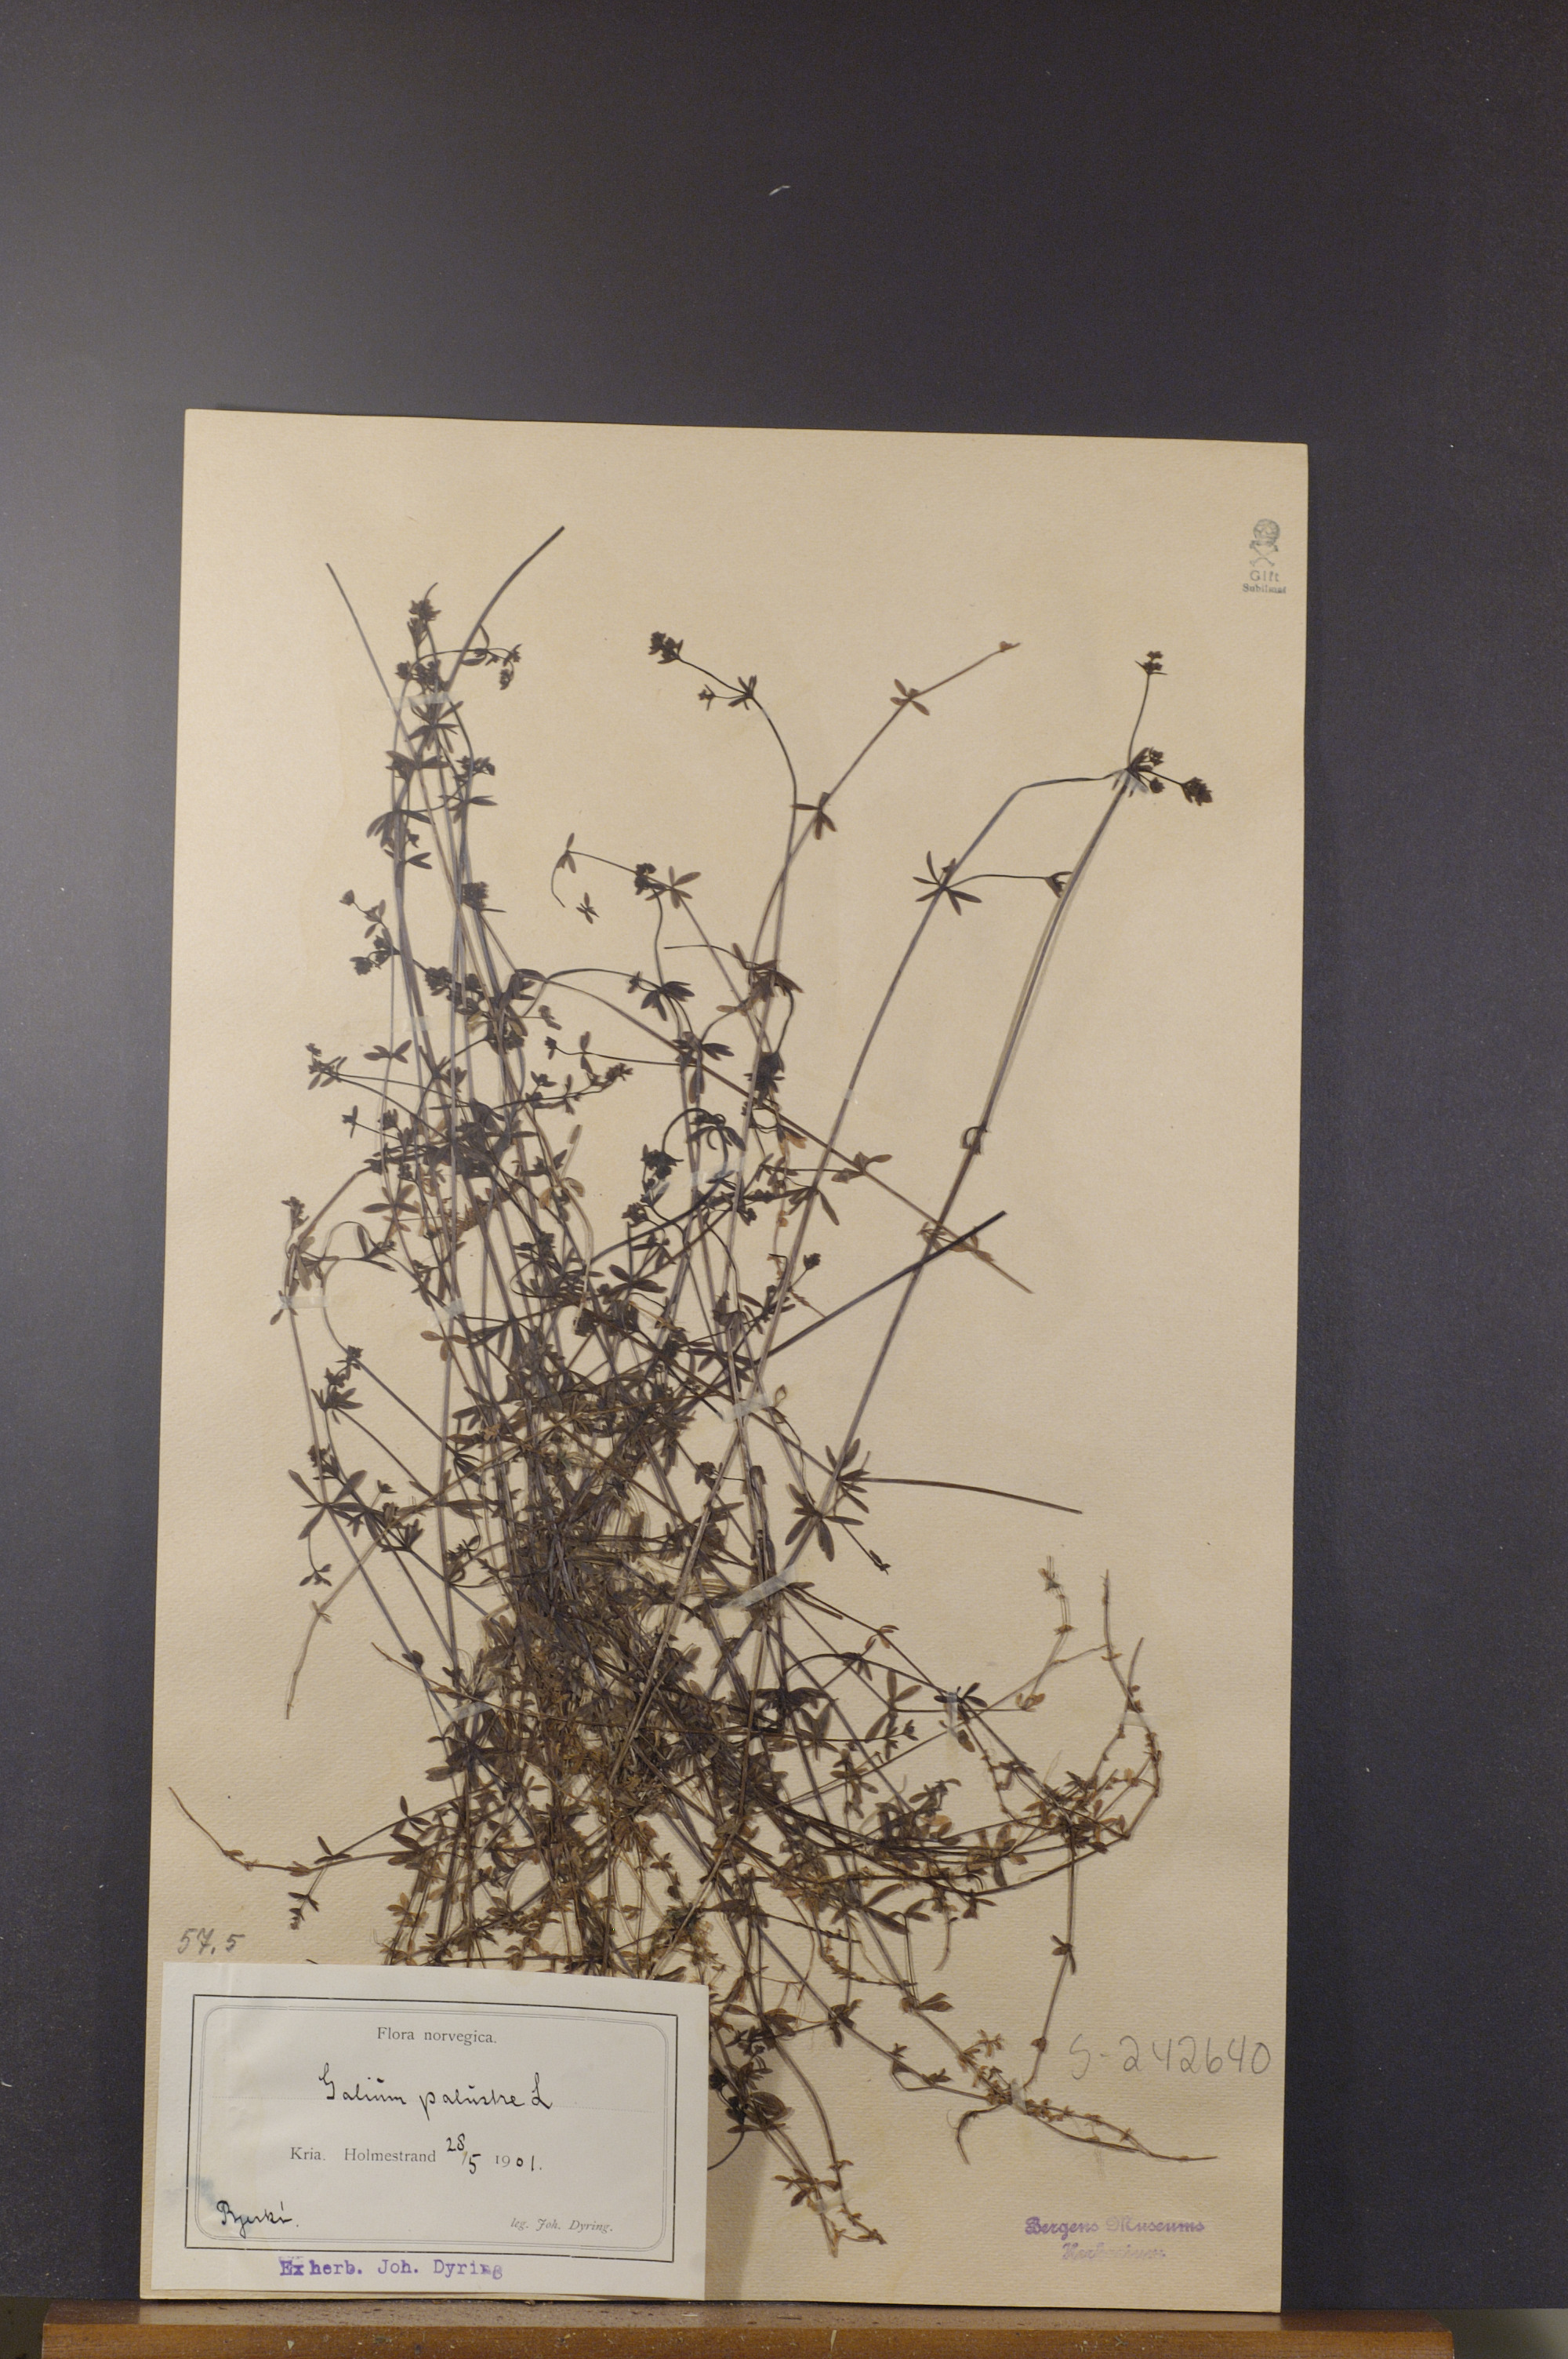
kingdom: Plantae
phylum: Tracheophyta
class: Magnoliopsida
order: Gentianales
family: Rubiaceae
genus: Galium
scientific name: Galium palustre
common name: Common marsh-bedstraw
